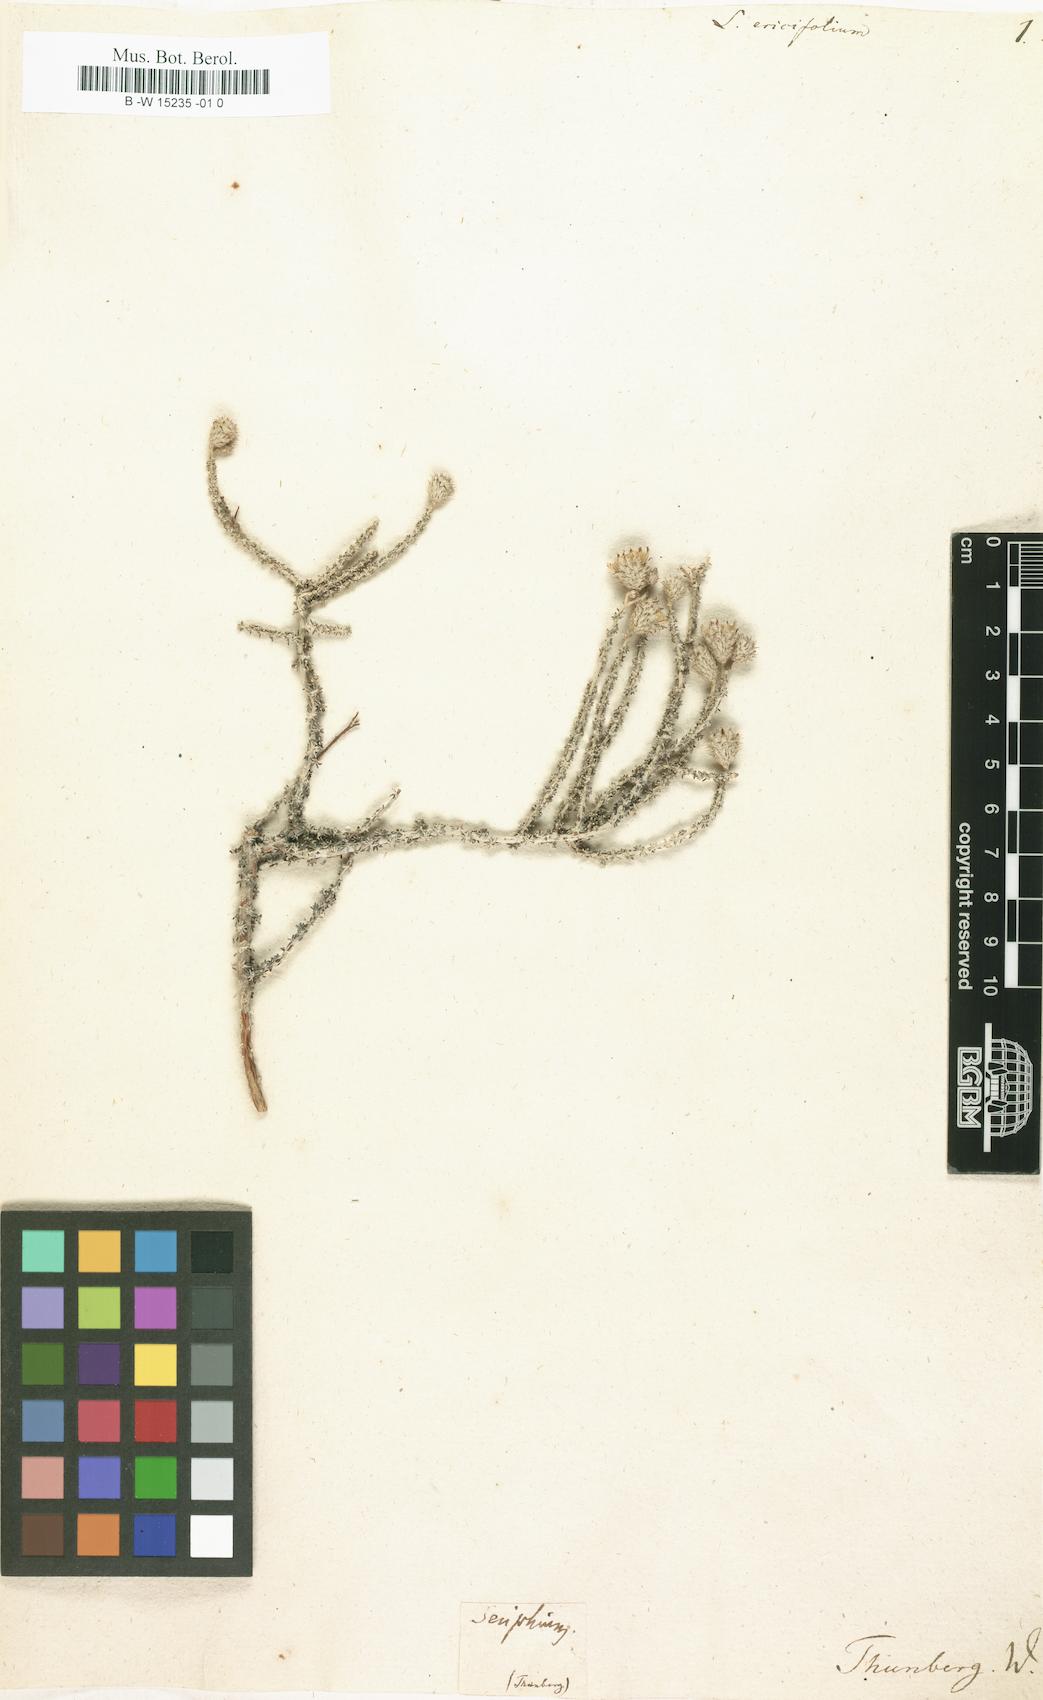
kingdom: Plantae
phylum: Tracheophyta
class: Magnoliopsida
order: Asterales
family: Asteraceae
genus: Lachnospermum
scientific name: Lachnospermum fasciculatum
